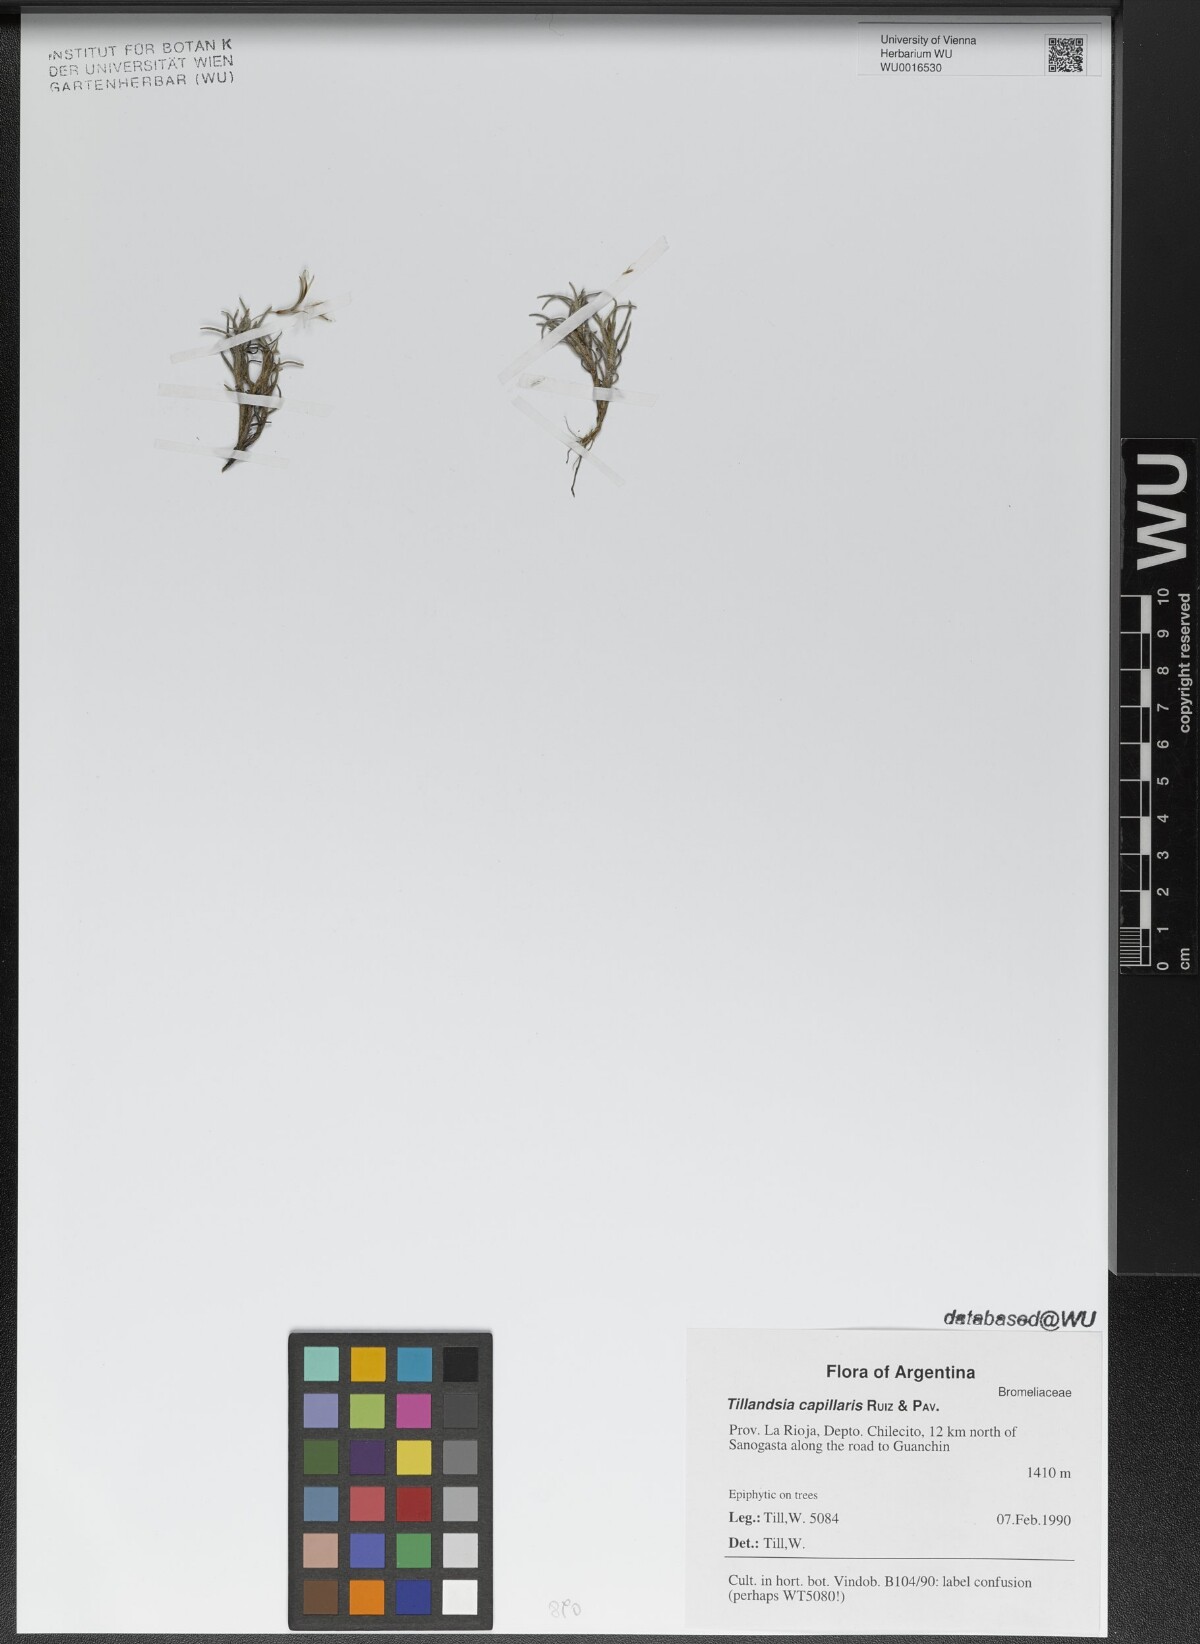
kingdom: Plantae
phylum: Tracheophyta
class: Liliopsida
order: Poales
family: Bromeliaceae
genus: Tillandsia
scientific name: Tillandsia capillaris
